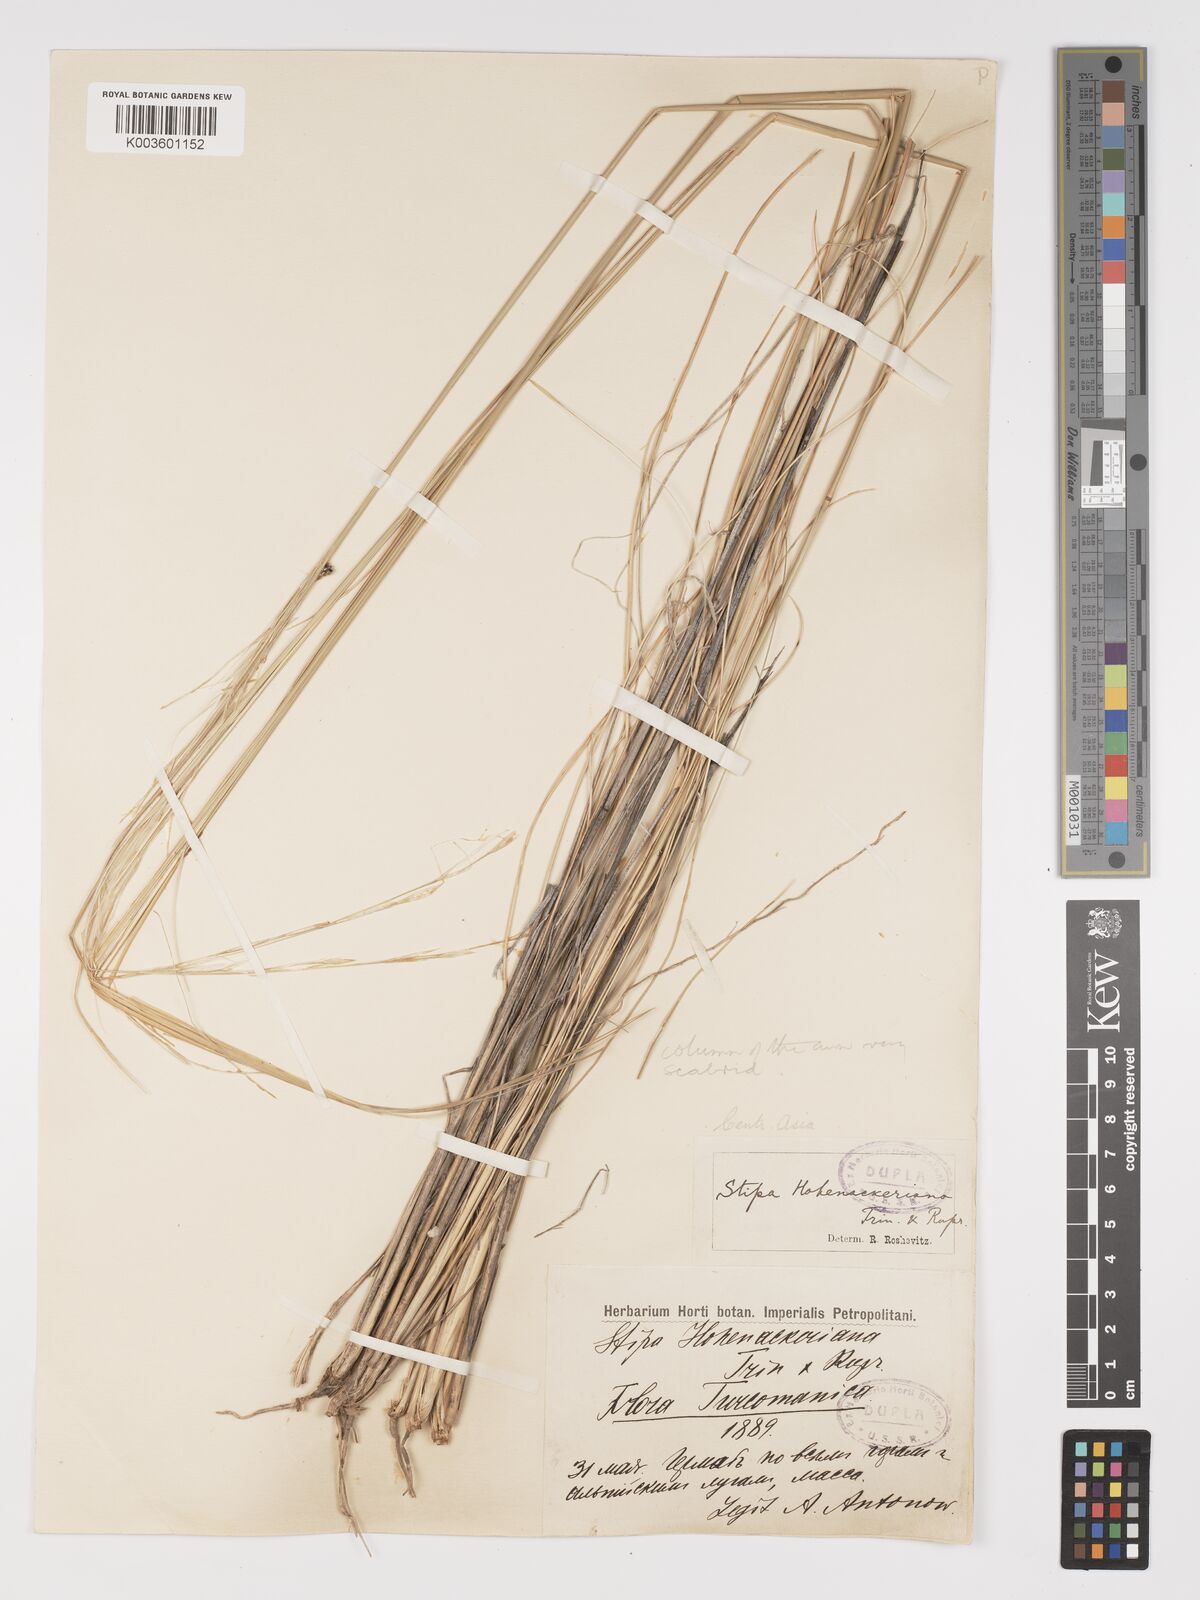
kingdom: Plantae
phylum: Tracheophyta
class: Liliopsida
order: Poales
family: Poaceae
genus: Stipa
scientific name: Stipa hohenackeriana
